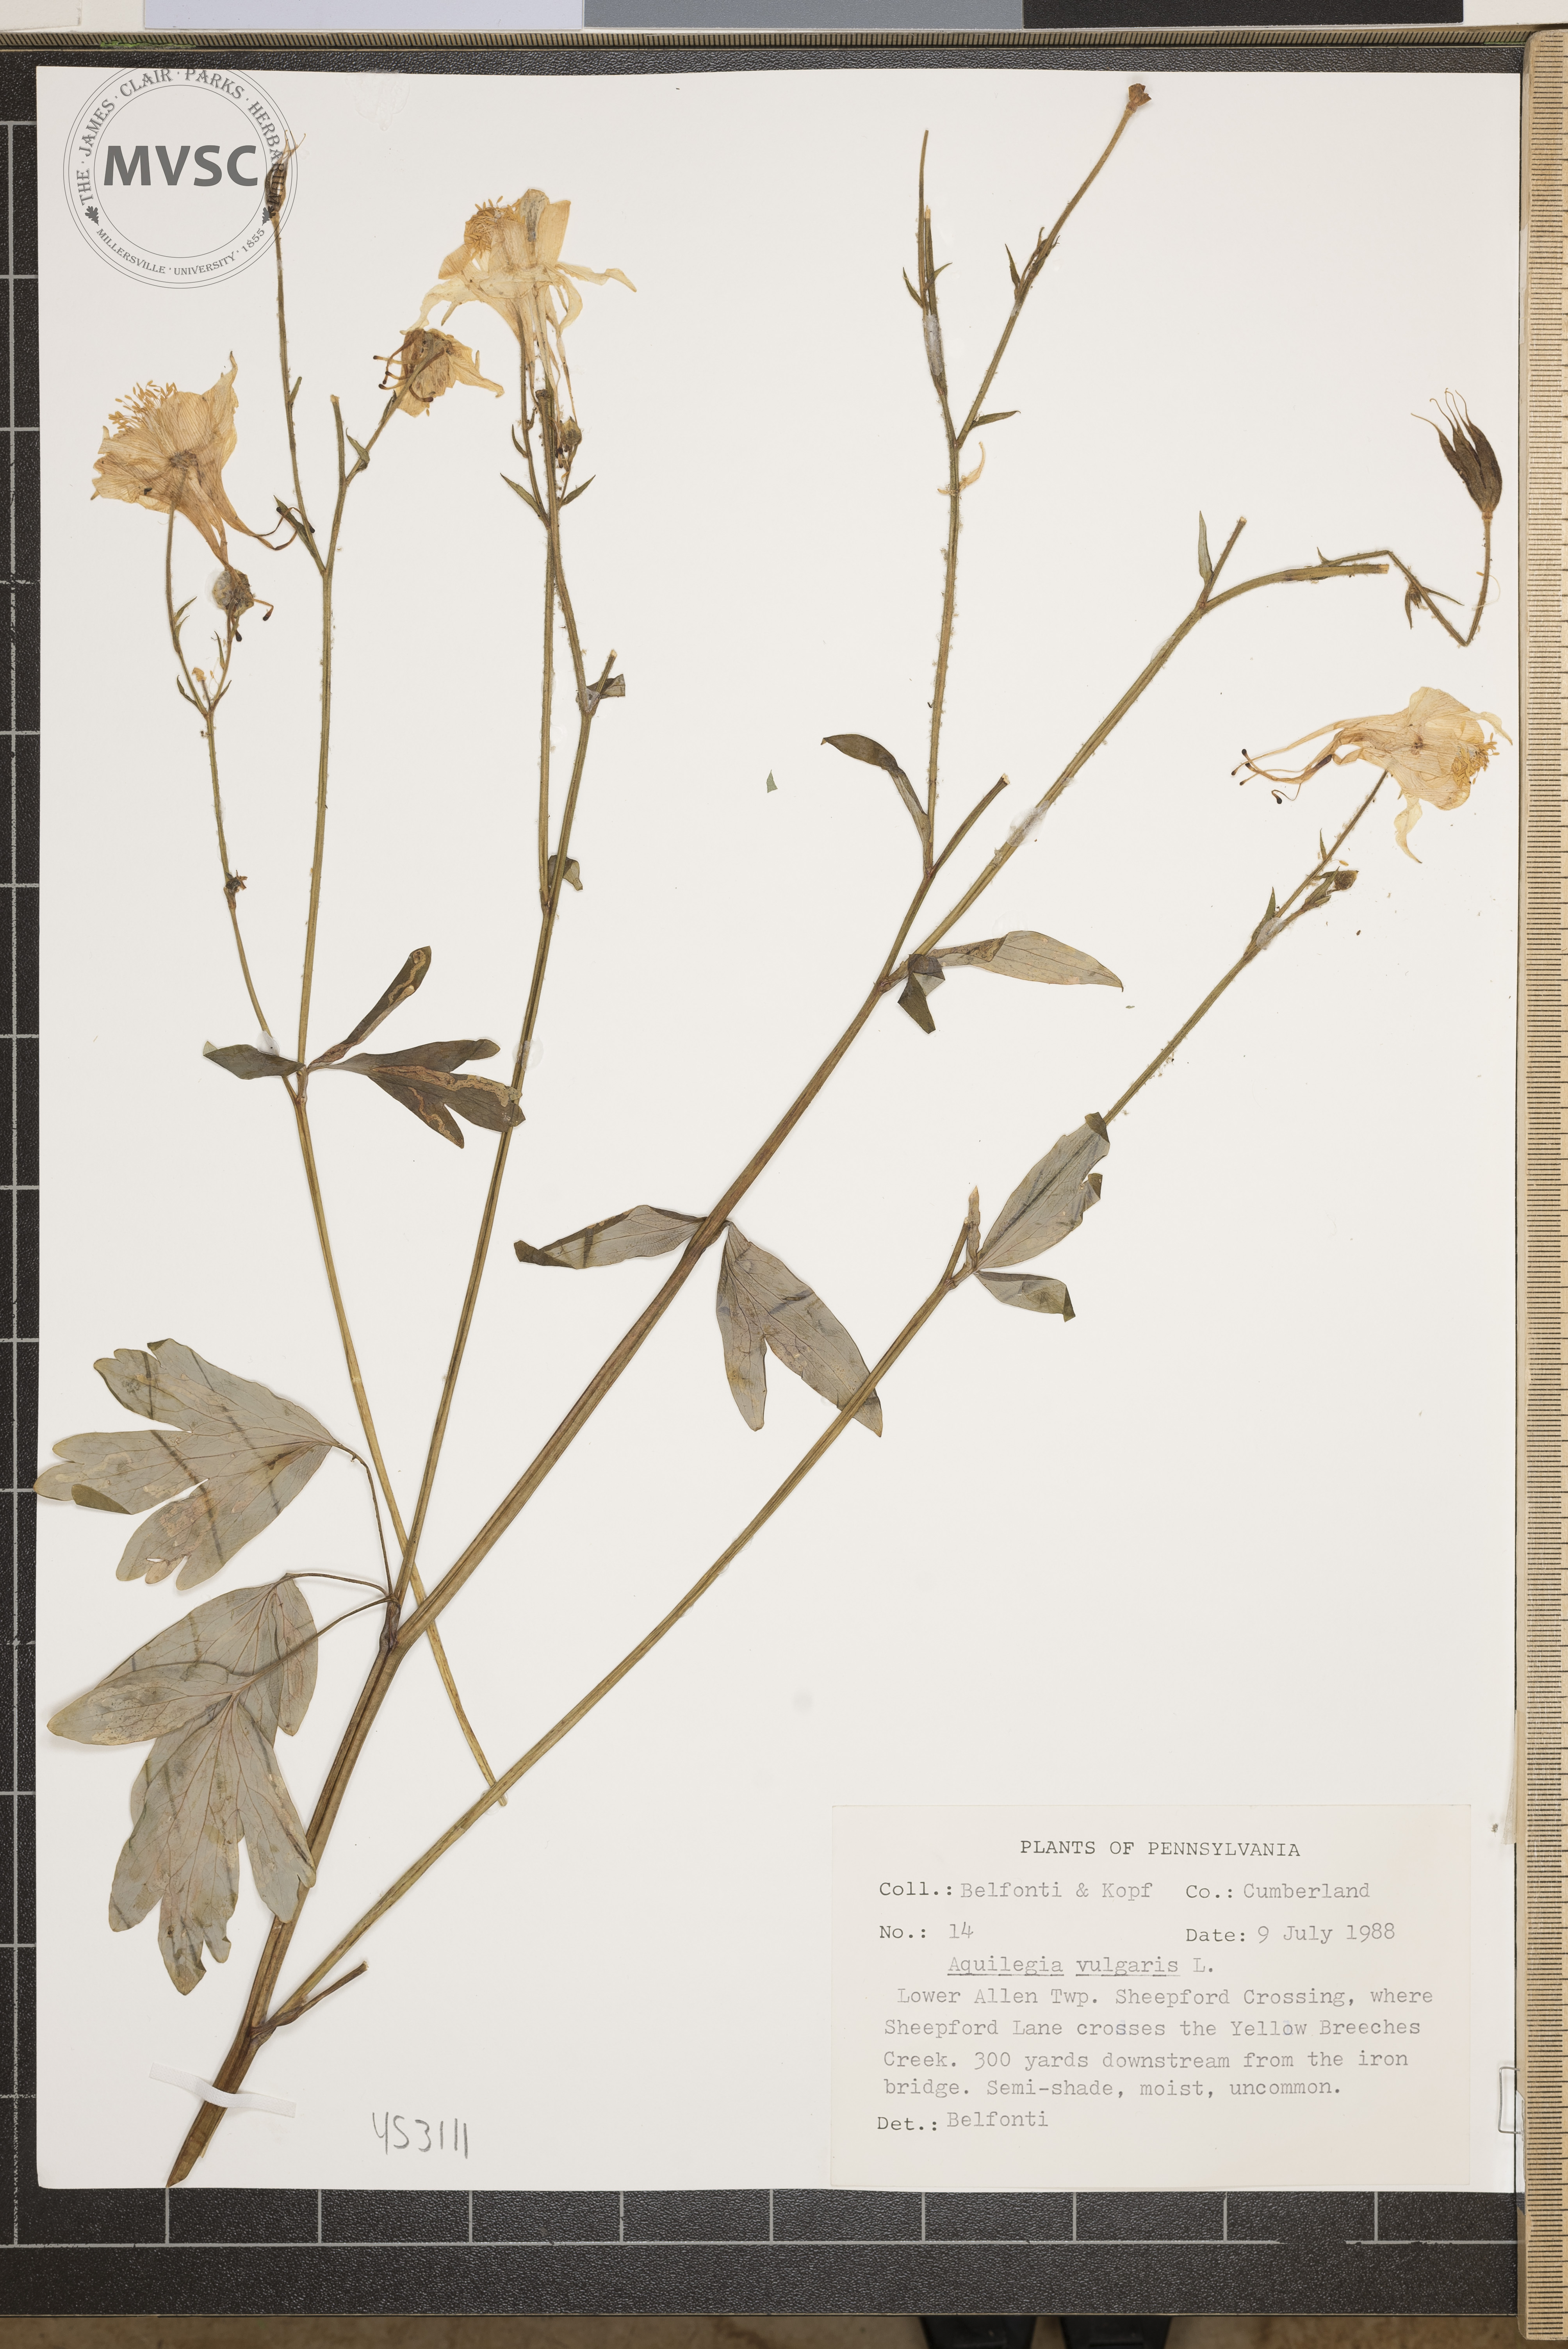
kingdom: Plantae
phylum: Tracheophyta
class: Magnoliopsida
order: Ranunculales
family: Ranunculaceae
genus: Aquilegia
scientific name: Aquilegia vulgaris
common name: Columbine
